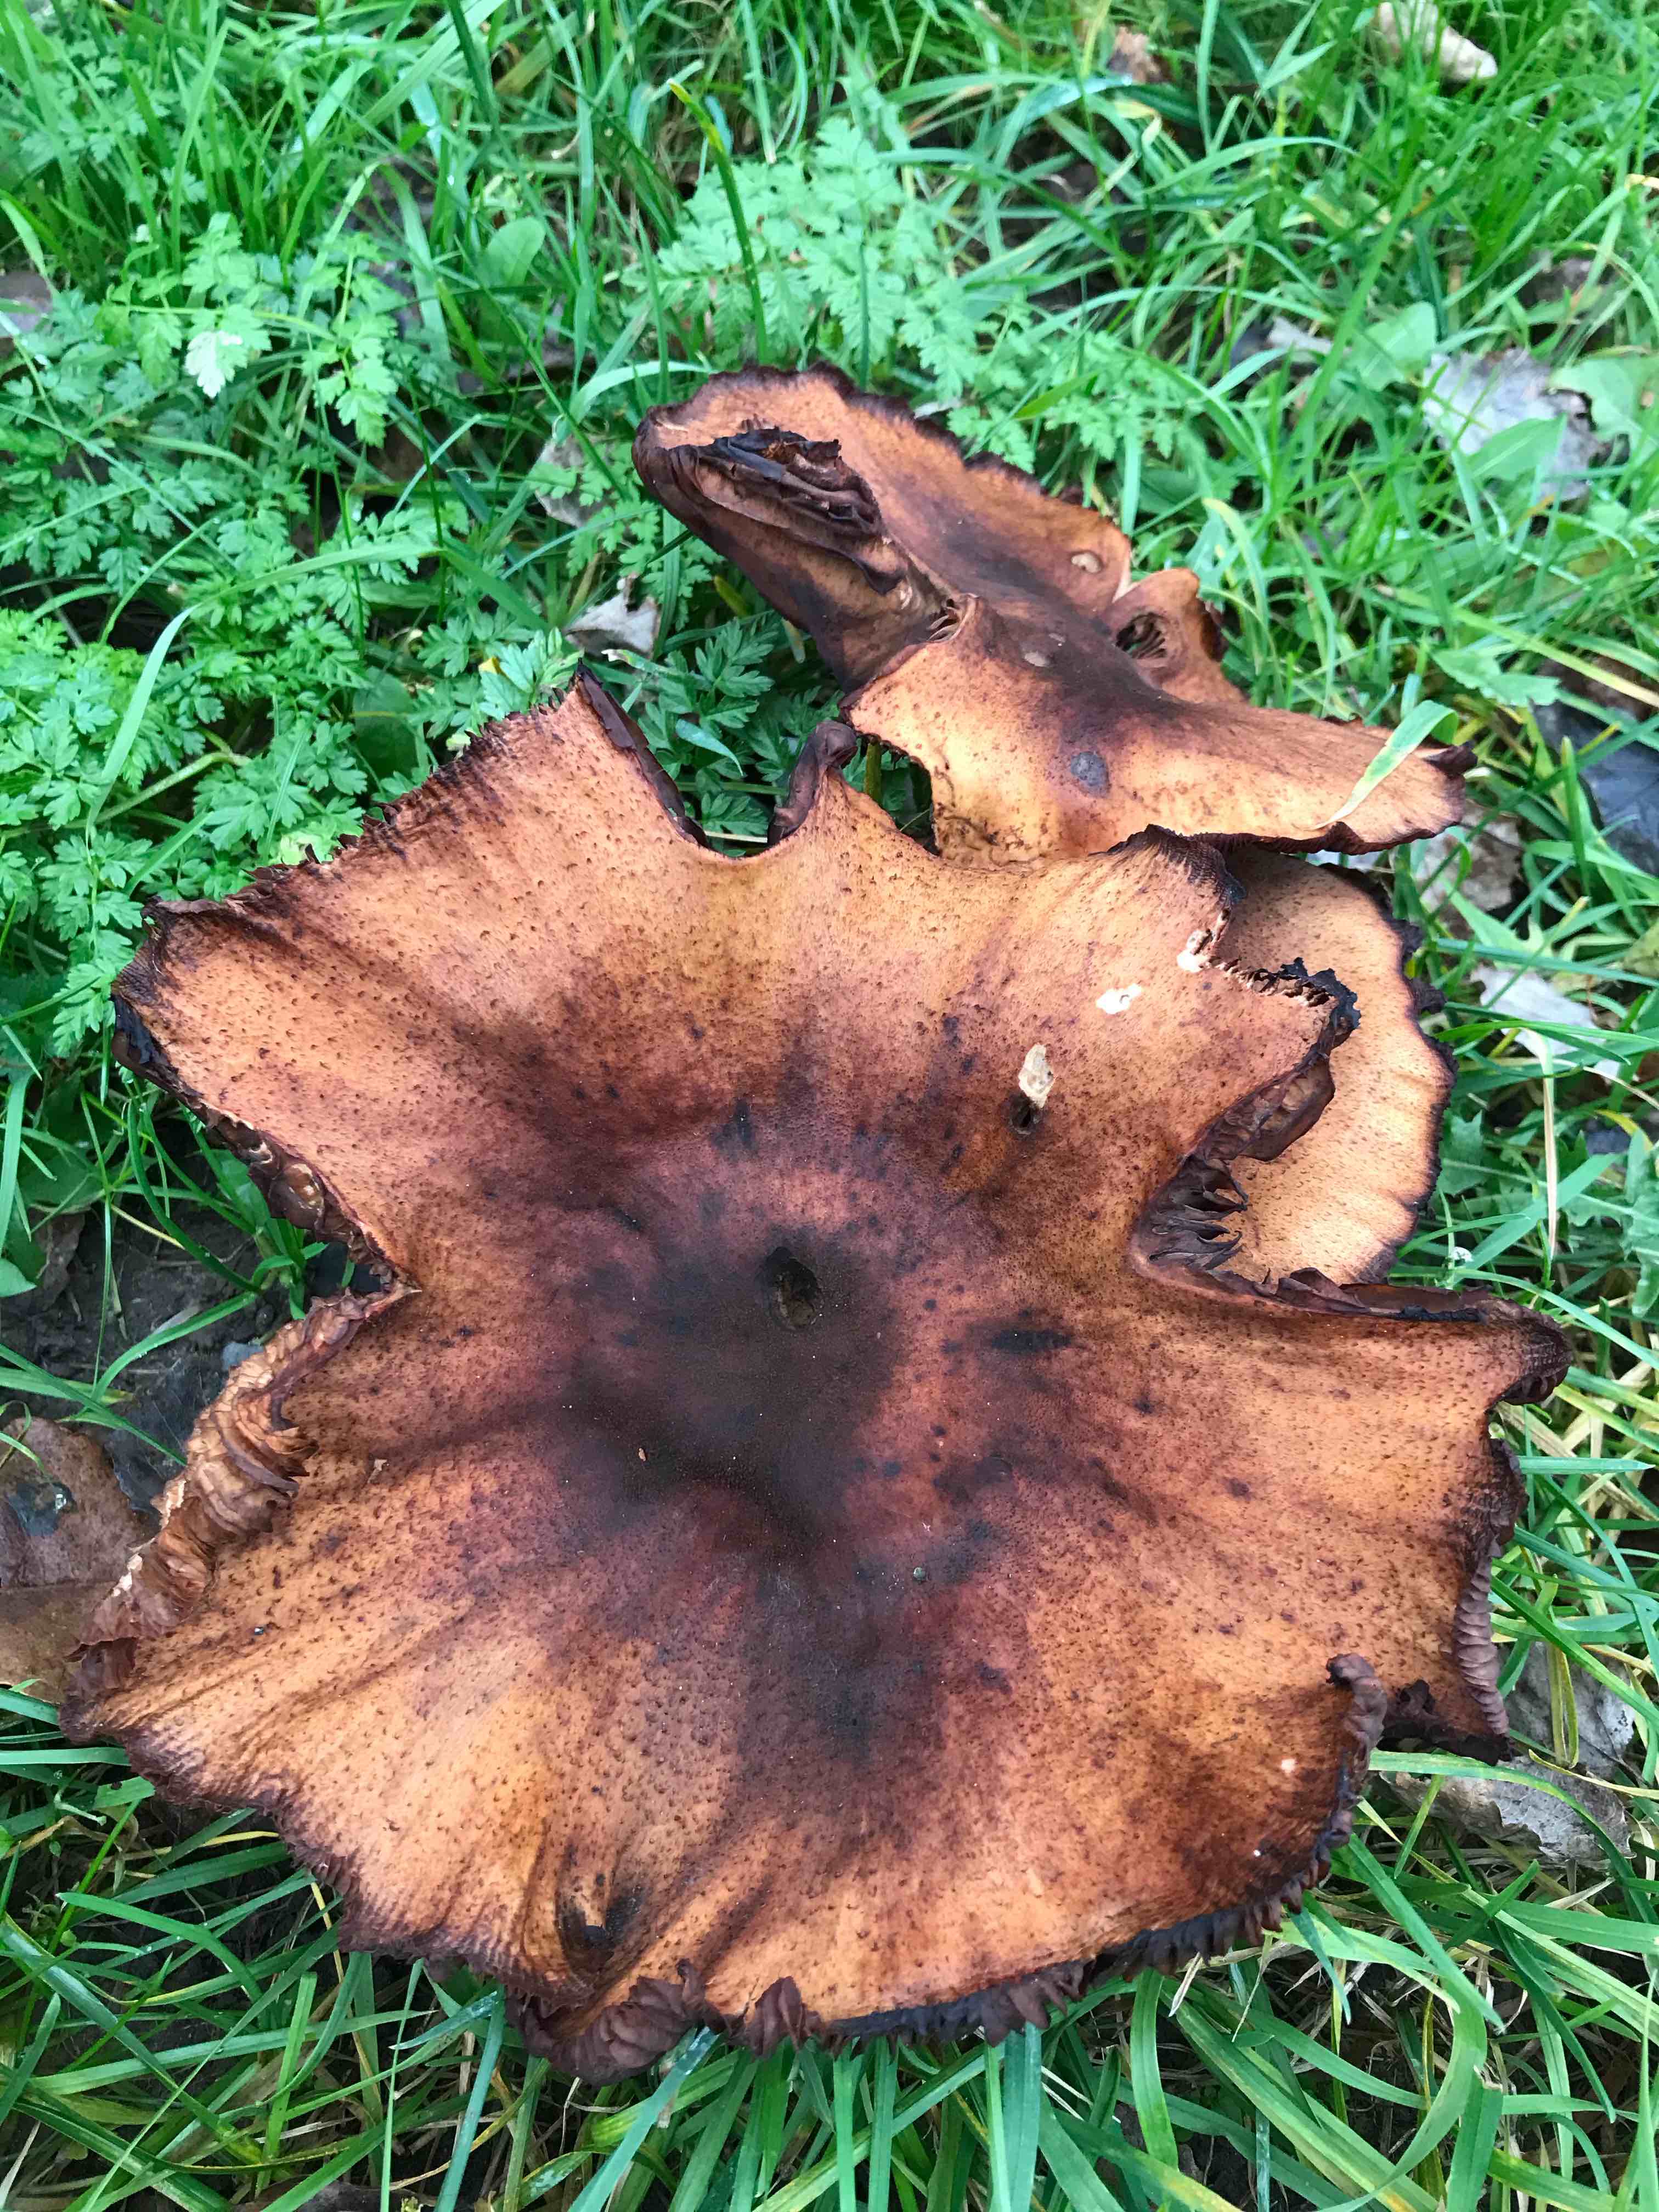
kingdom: Fungi
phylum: Basidiomycota
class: Agaricomycetes
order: Agaricales
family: Physalacriaceae
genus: Armillaria
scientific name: Armillaria
